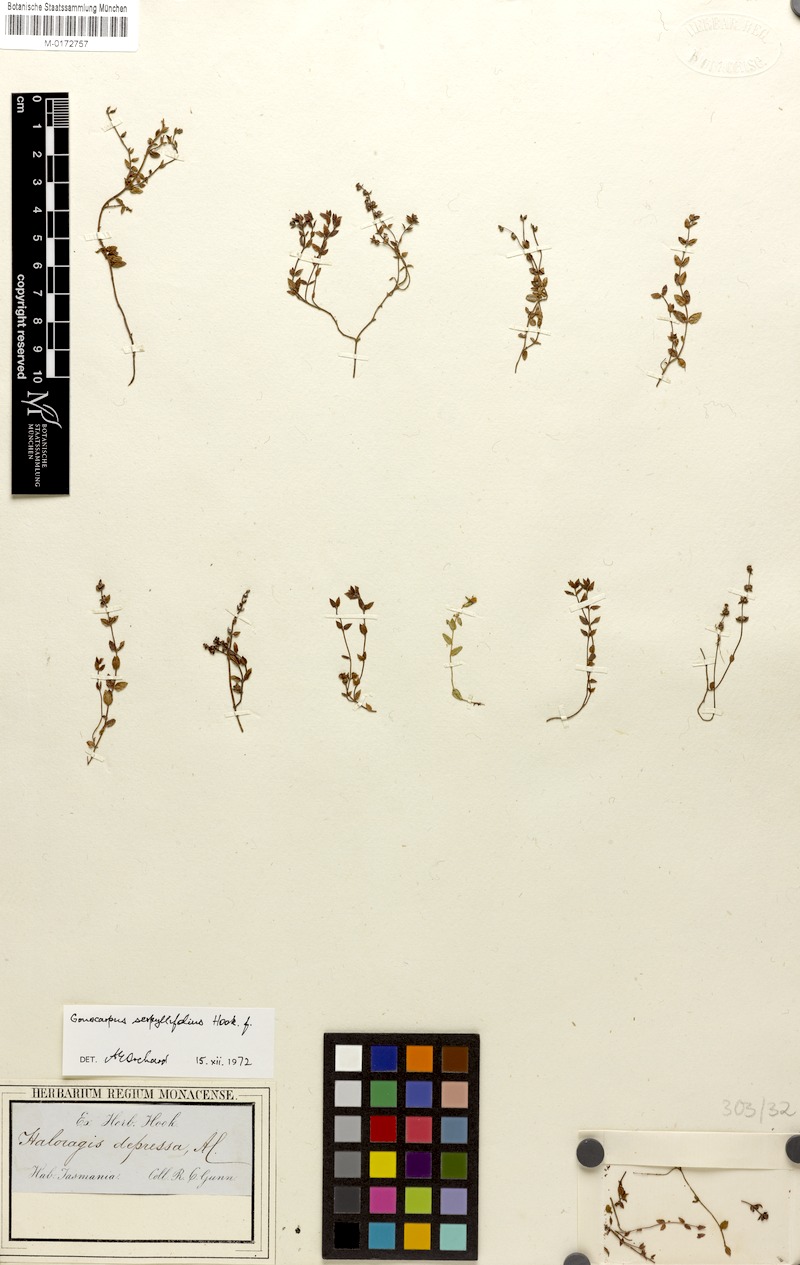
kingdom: Plantae
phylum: Tracheophyta
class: Magnoliopsida
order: Saxifragales
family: Haloragaceae
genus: Gonocarpus
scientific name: Gonocarpus serpyllifolius
